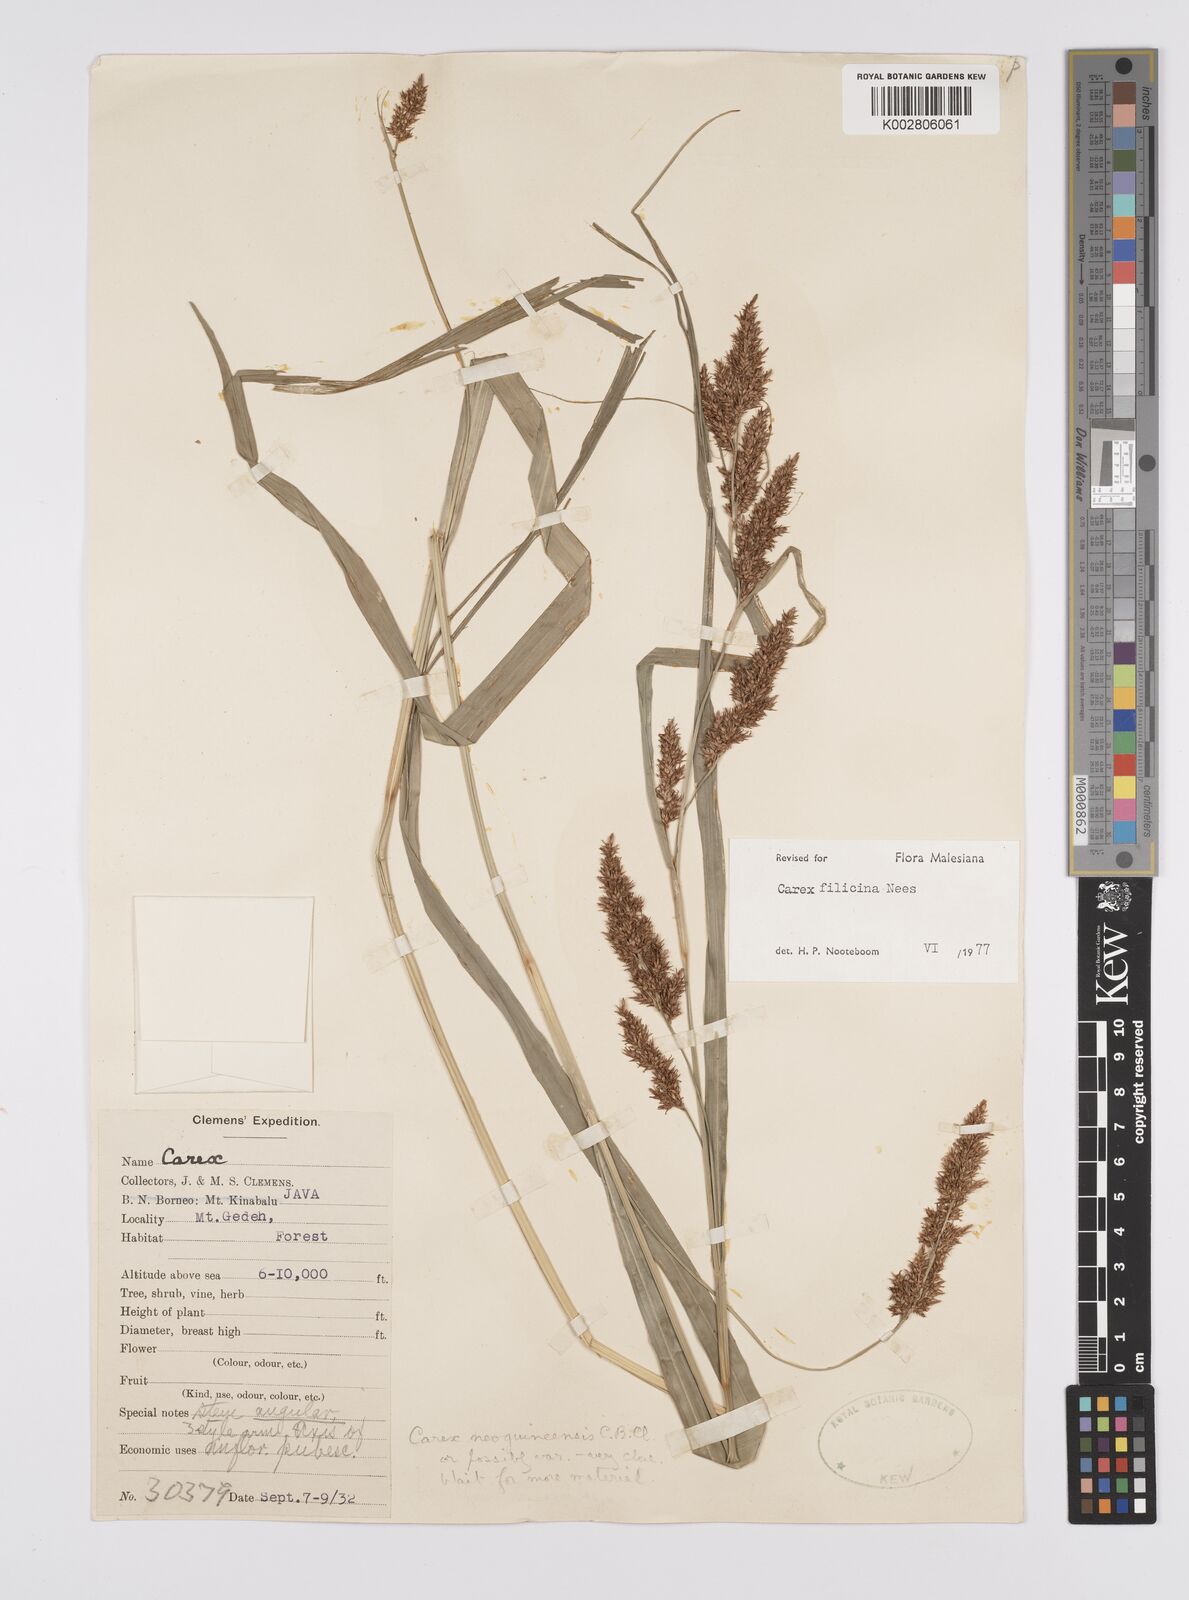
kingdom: Plantae
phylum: Tracheophyta
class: Liliopsida
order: Poales
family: Cyperaceae
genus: Carex
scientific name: Carex filicina
